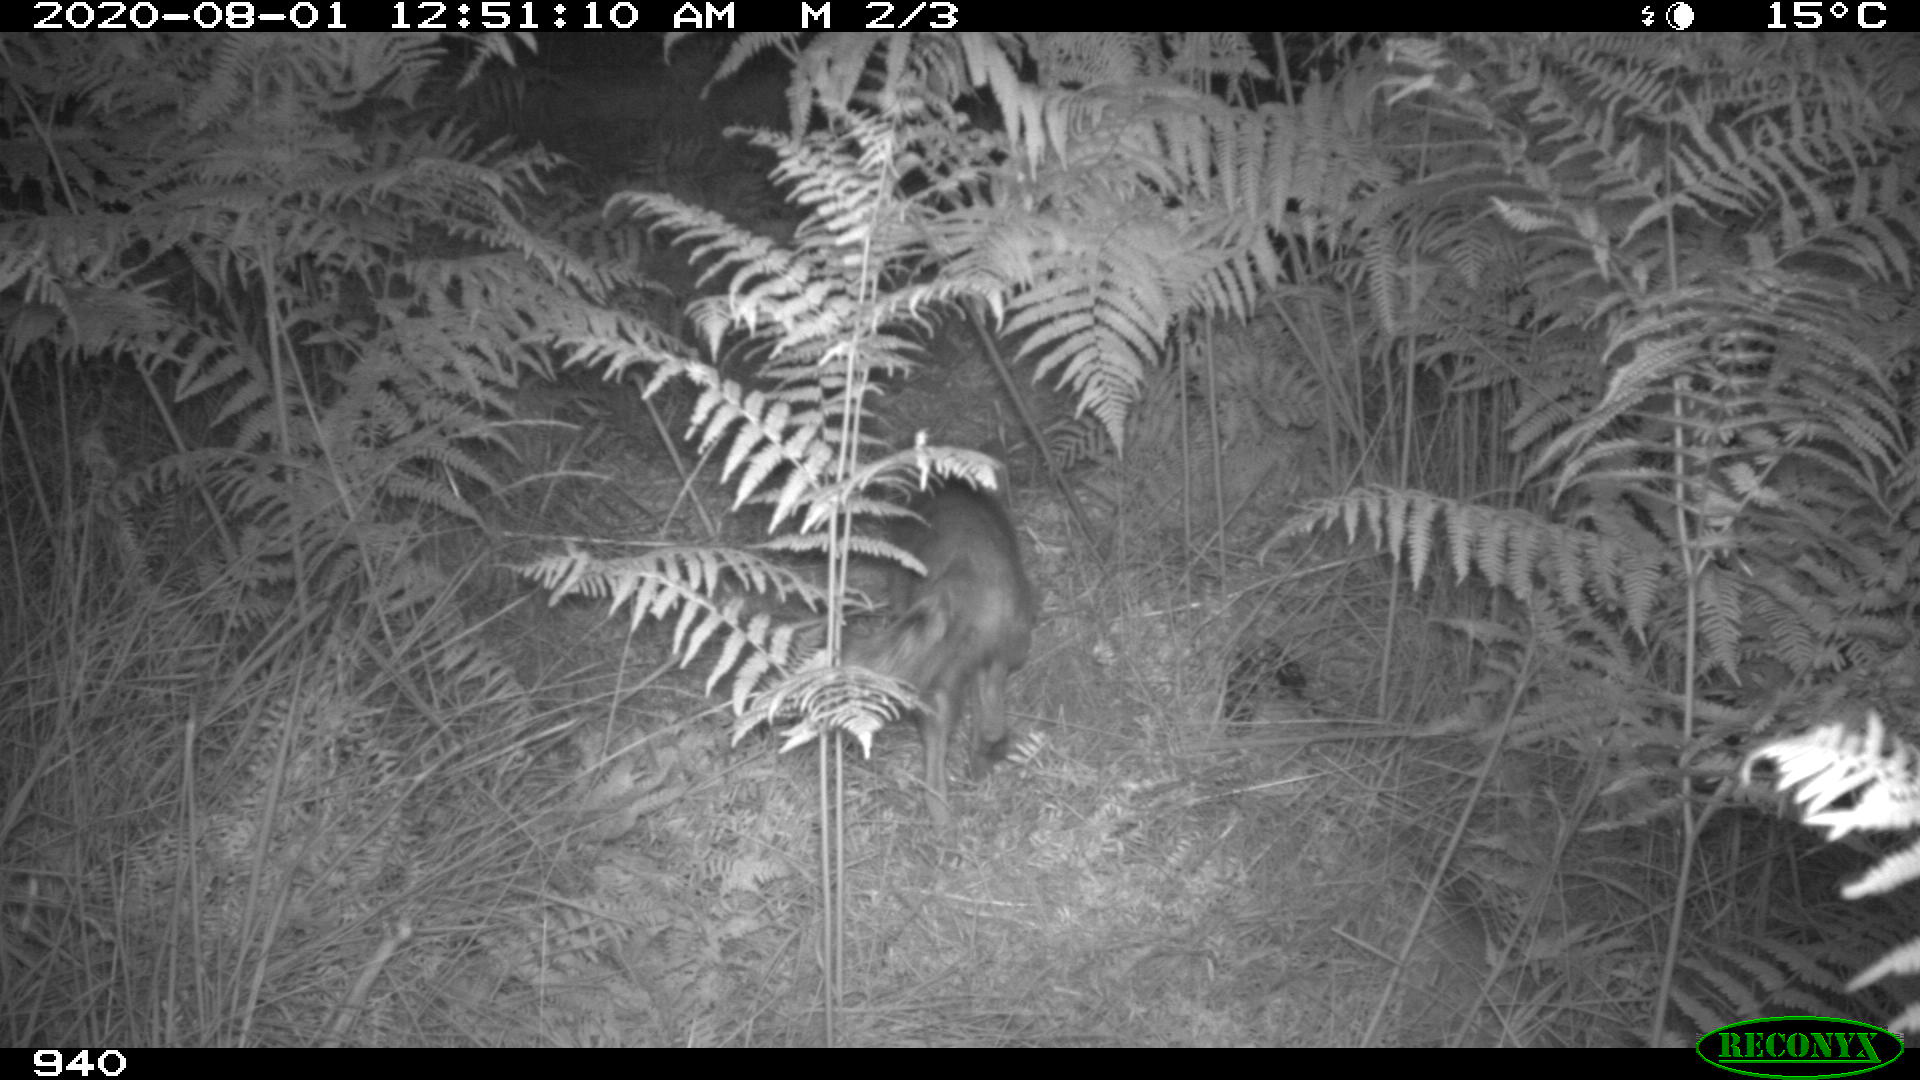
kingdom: Animalia
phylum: Chordata
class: Mammalia
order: Carnivora
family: Canidae
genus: Vulpes
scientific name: Vulpes vulpes
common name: Red fox
